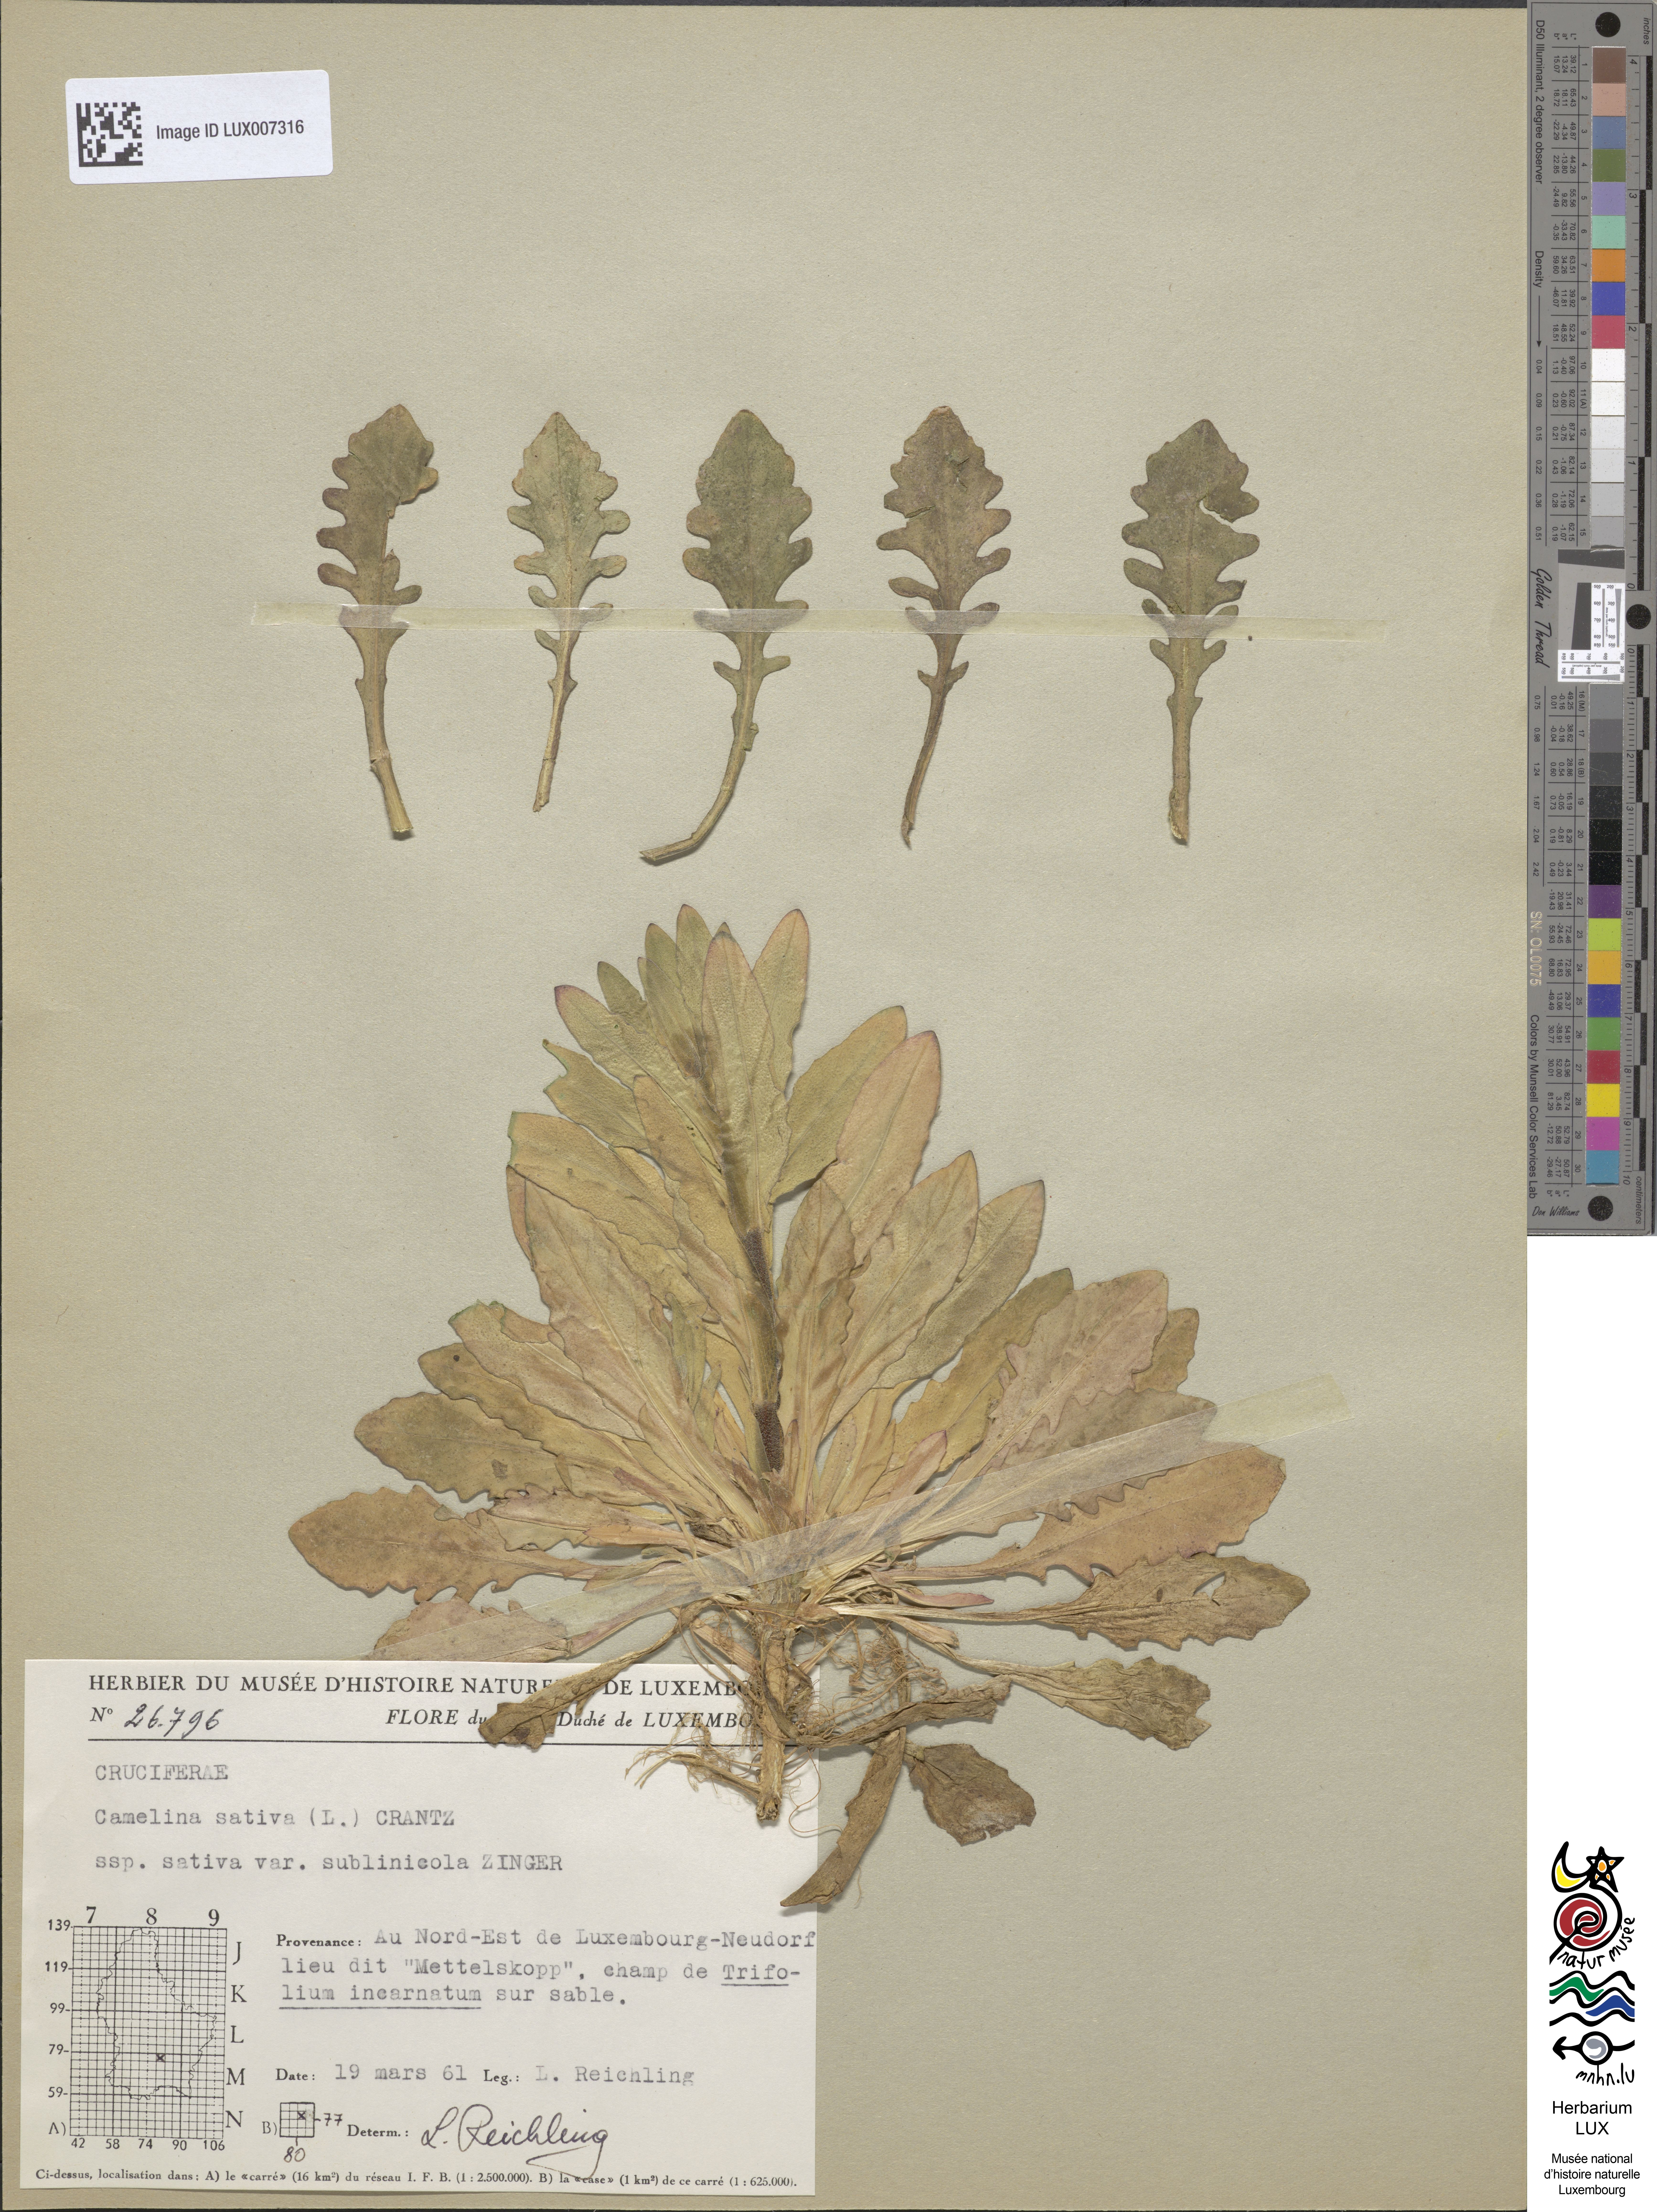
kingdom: Plantae
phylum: Tracheophyta
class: Magnoliopsida
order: Brassicales
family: Brassicaceae
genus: Camelina
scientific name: Camelina alyssum
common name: Gold-of-pleasure
